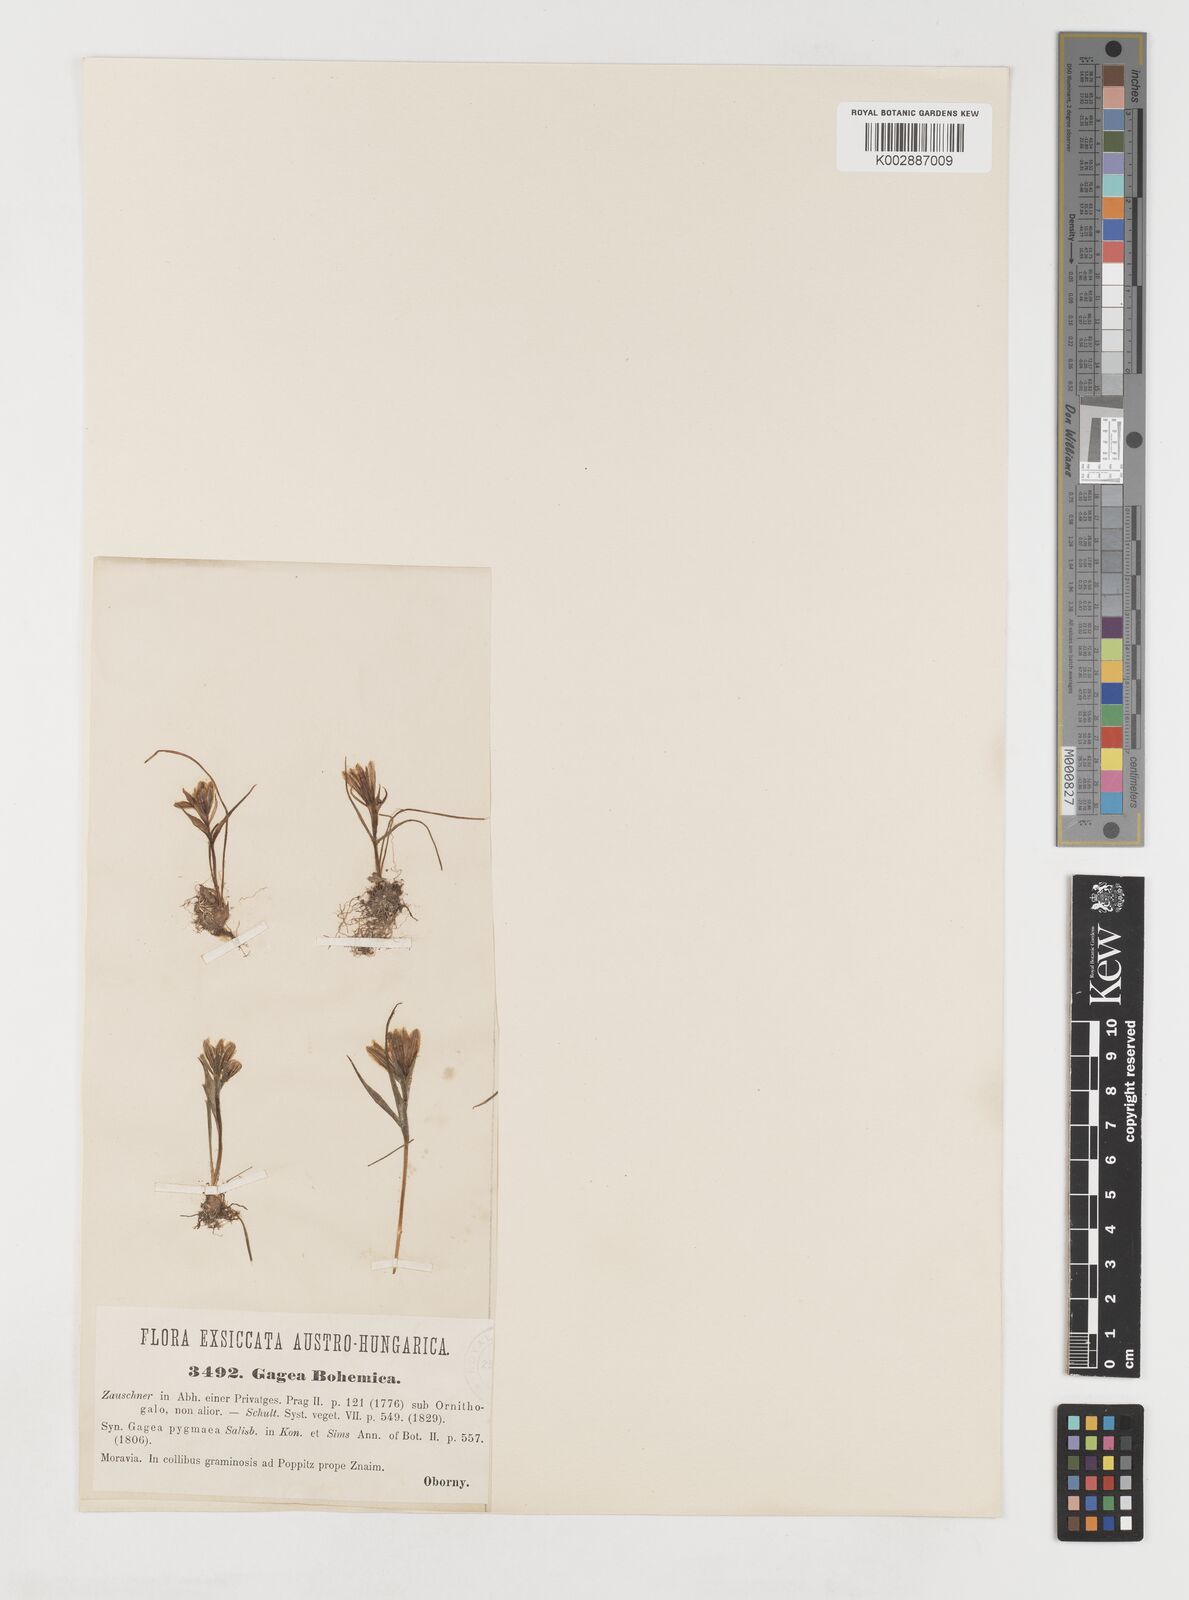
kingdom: Plantae
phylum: Tracheophyta
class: Liliopsida
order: Liliales
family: Liliaceae
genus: Gagea
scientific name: Gagea bohemica
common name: Early star-of-bethlehem
